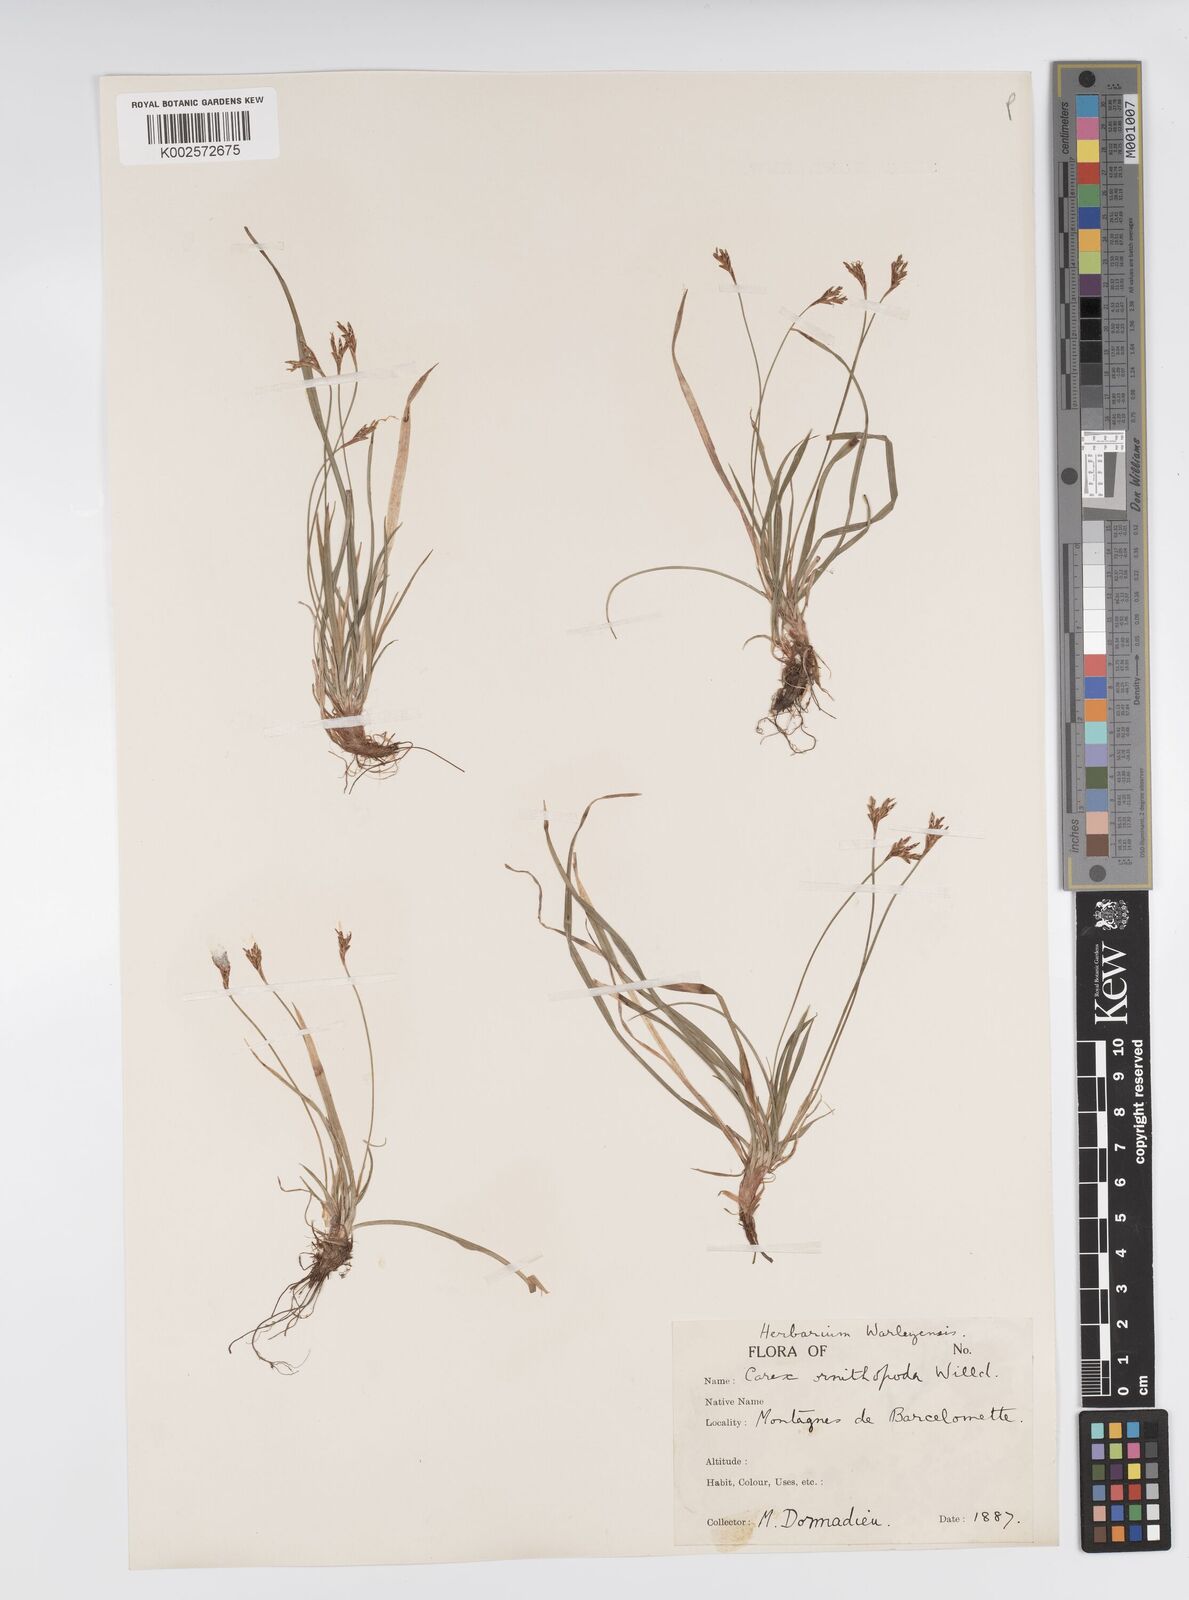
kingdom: Plantae
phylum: Tracheophyta
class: Liliopsida
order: Poales
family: Cyperaceae
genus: Carex
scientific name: Carex ornithopoda
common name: Bird's-foot sedge
